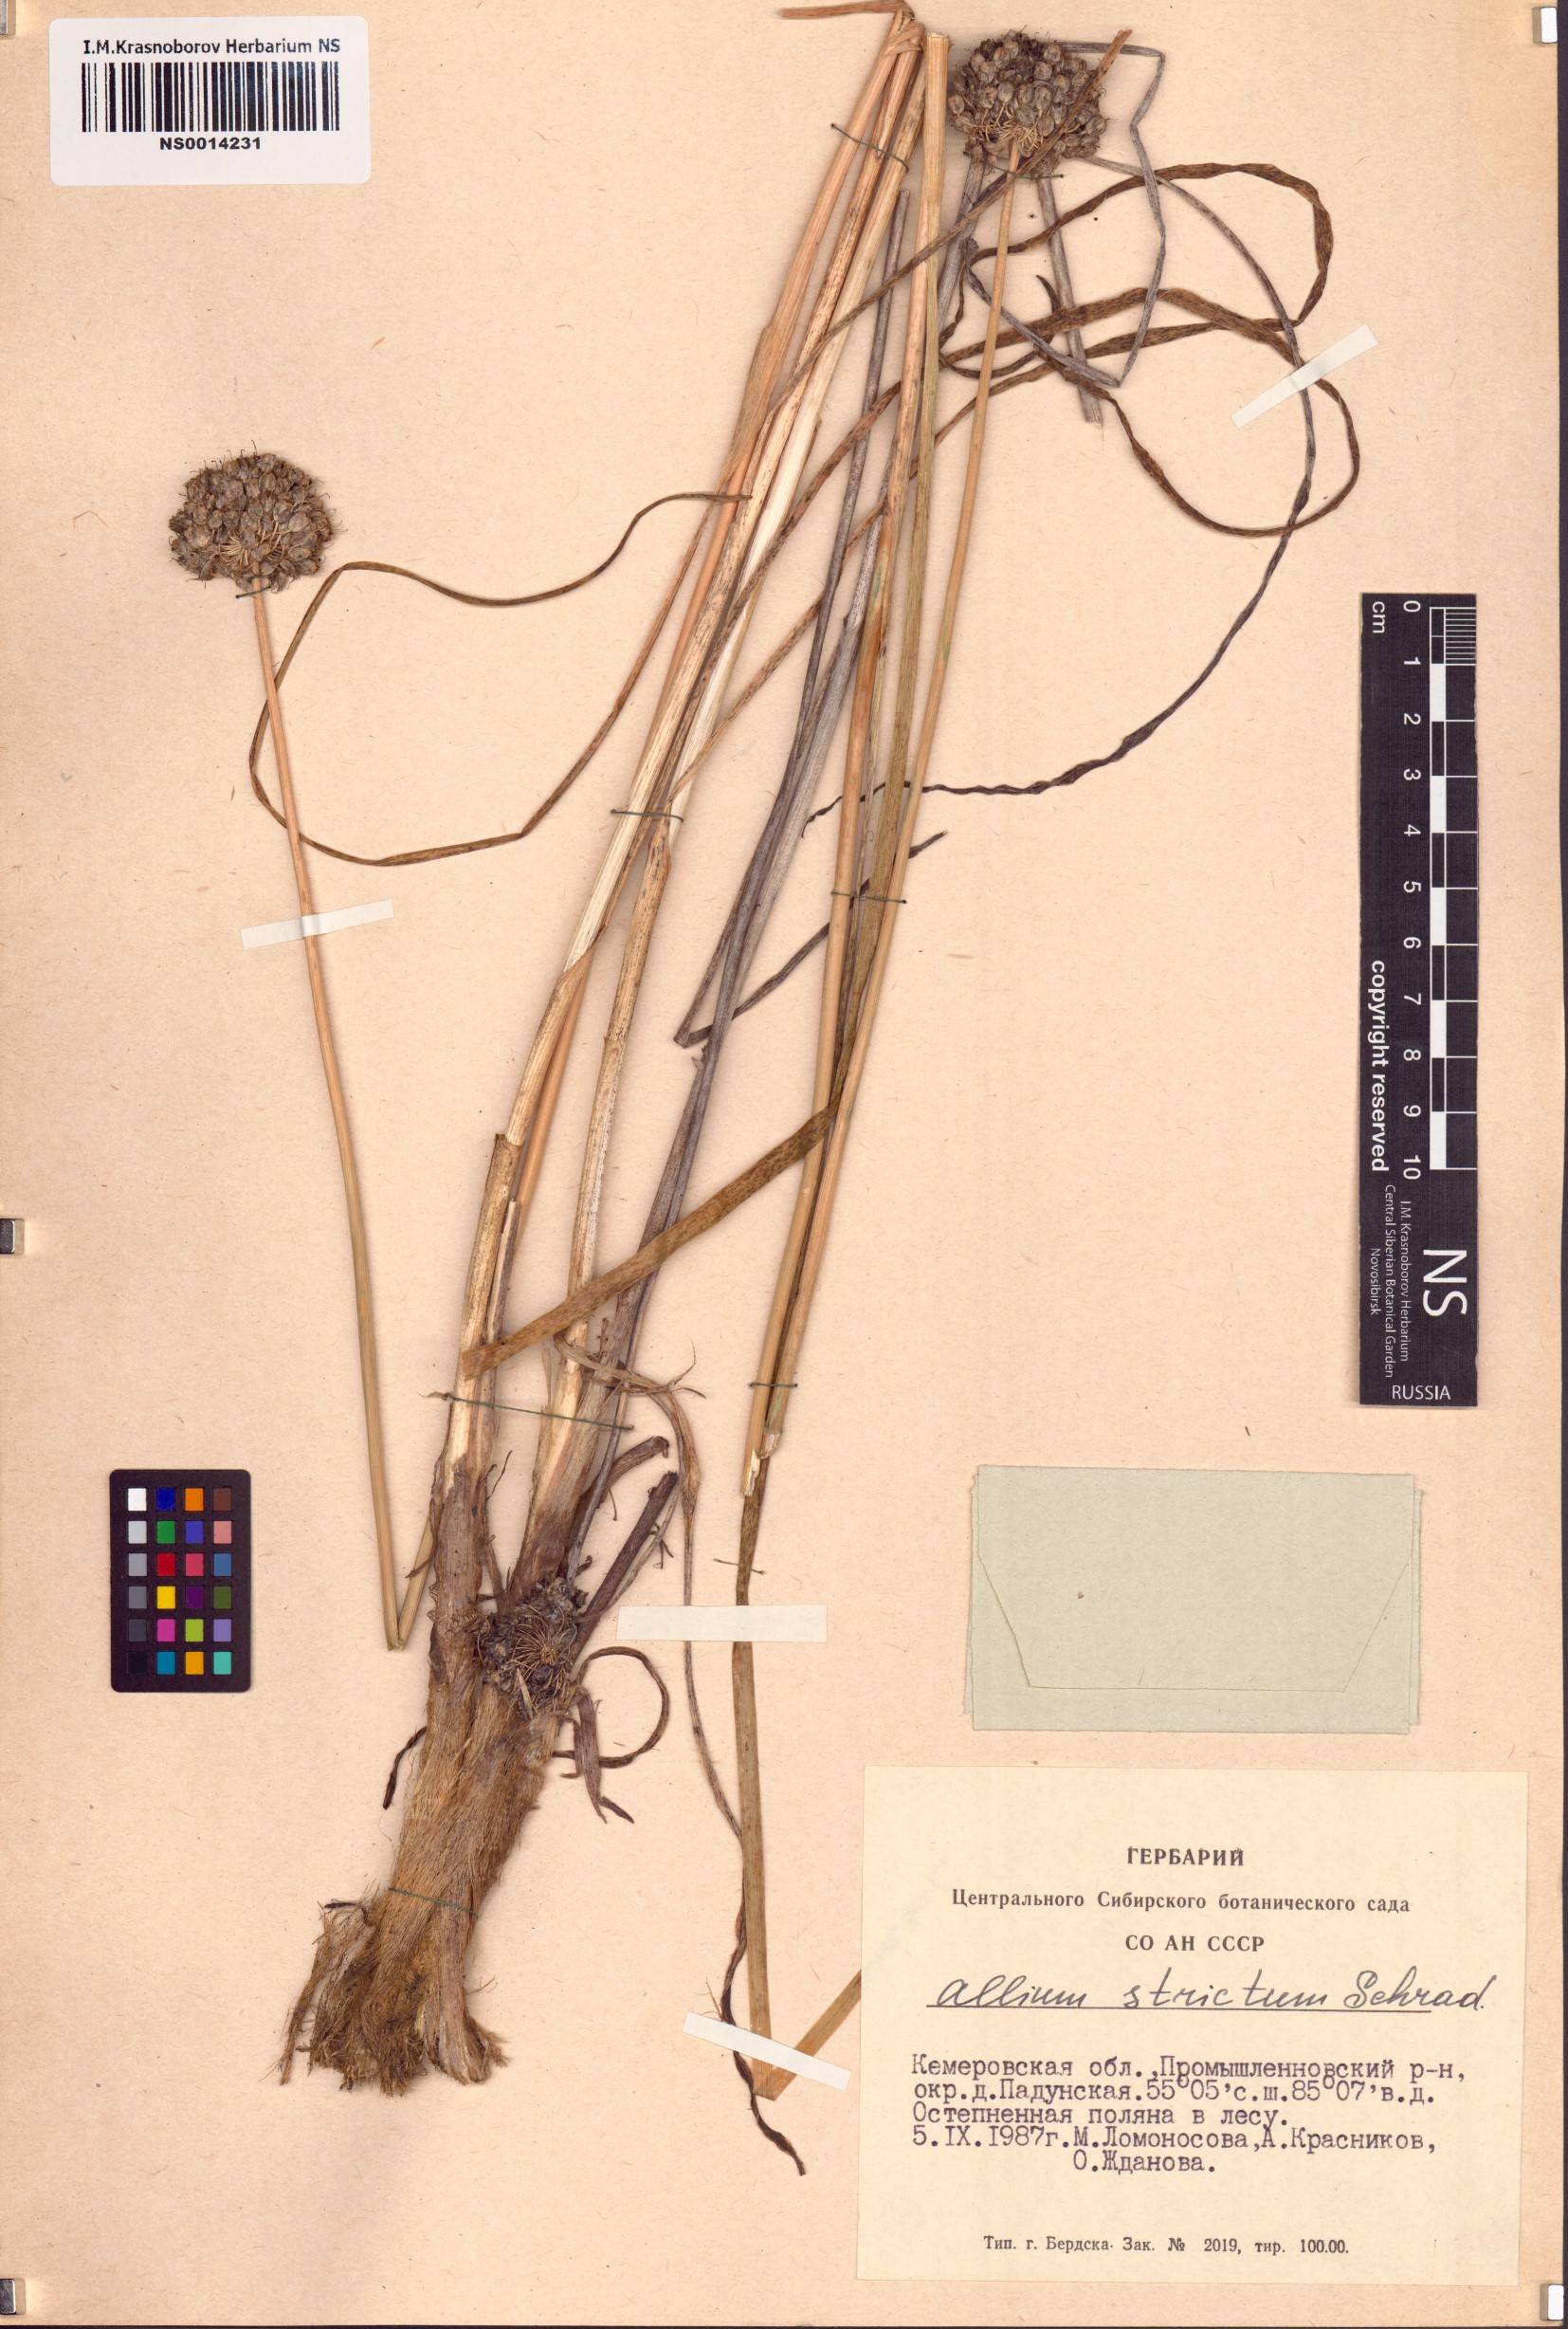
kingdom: Plantae
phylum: Tracheophyta
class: Liliopsida
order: Asparagales
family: Amaryllidaceae
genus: Allium
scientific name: Allium strictum
